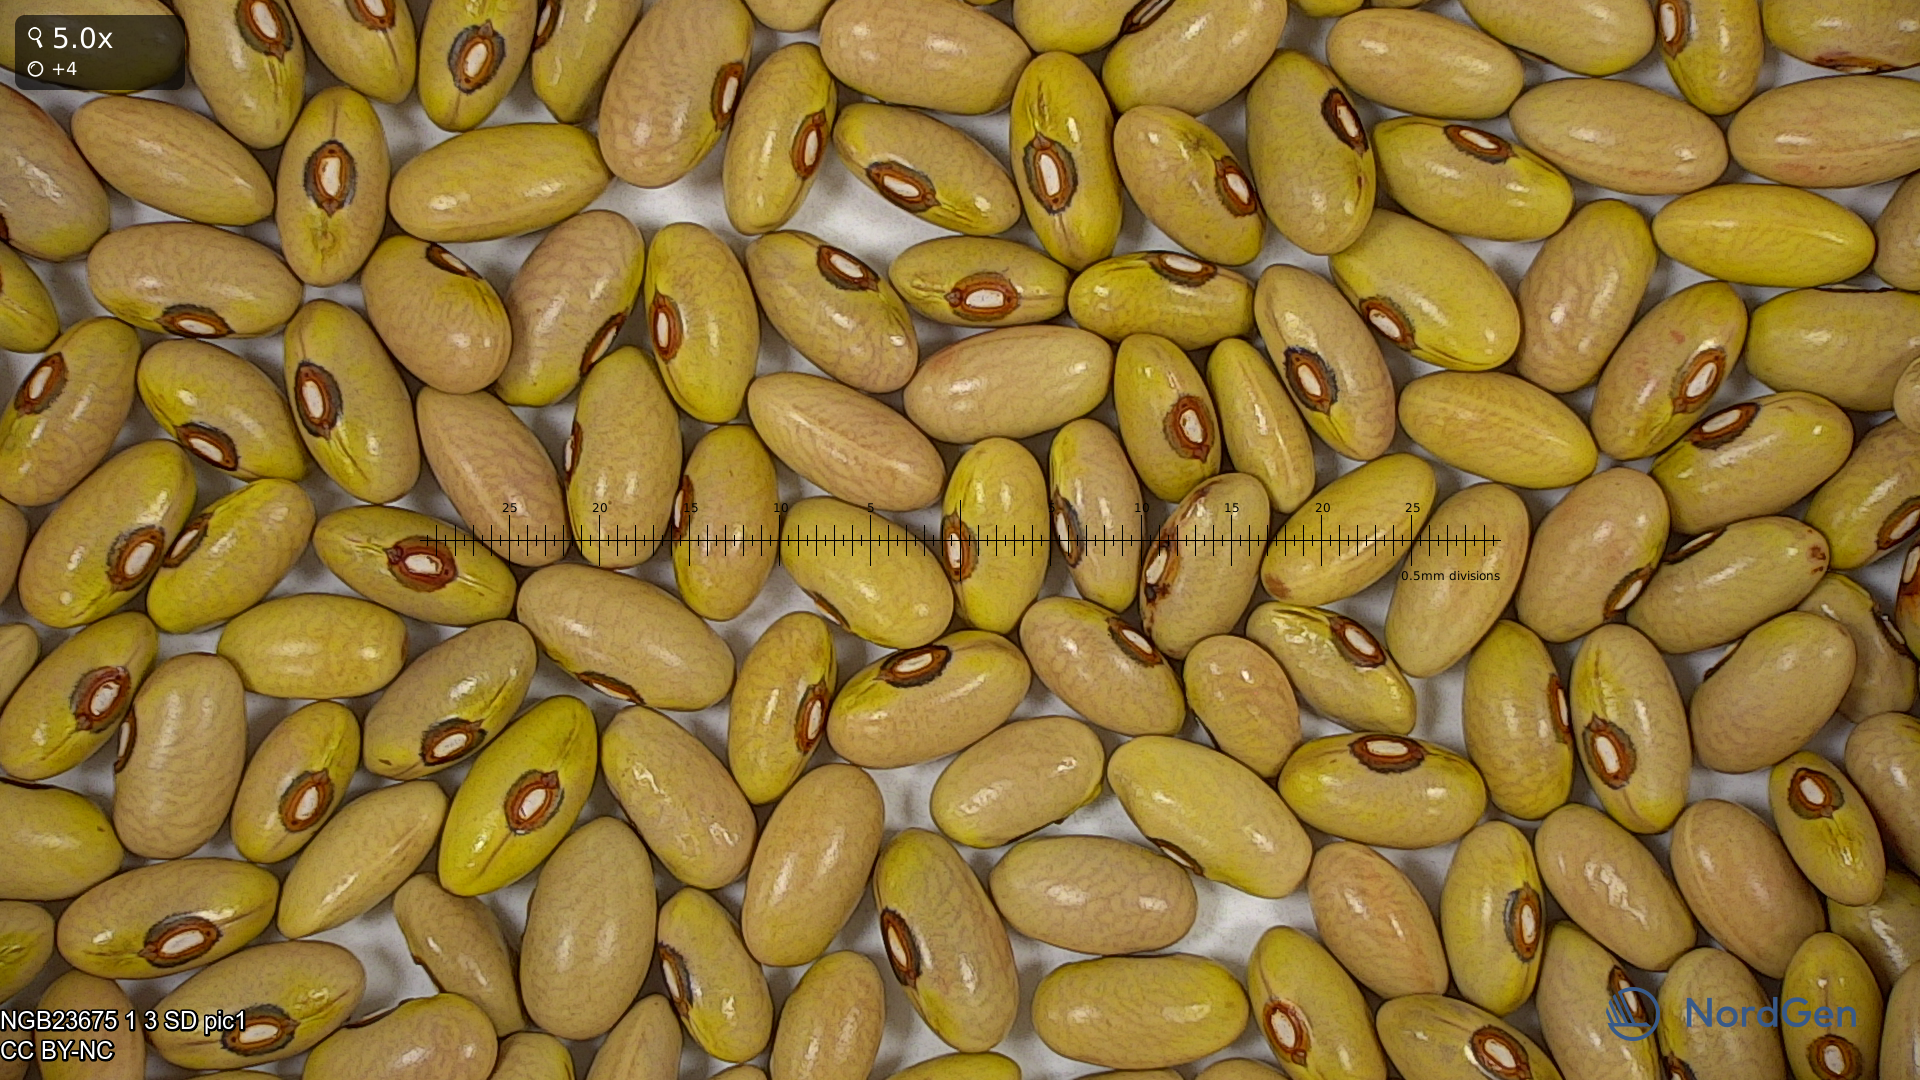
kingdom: Plantae
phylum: Tracheophyta
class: Magnoliopsida
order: Fabales
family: Fabaceae
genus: Phaseolus
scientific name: Phaseolus vulgaris
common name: Bean
